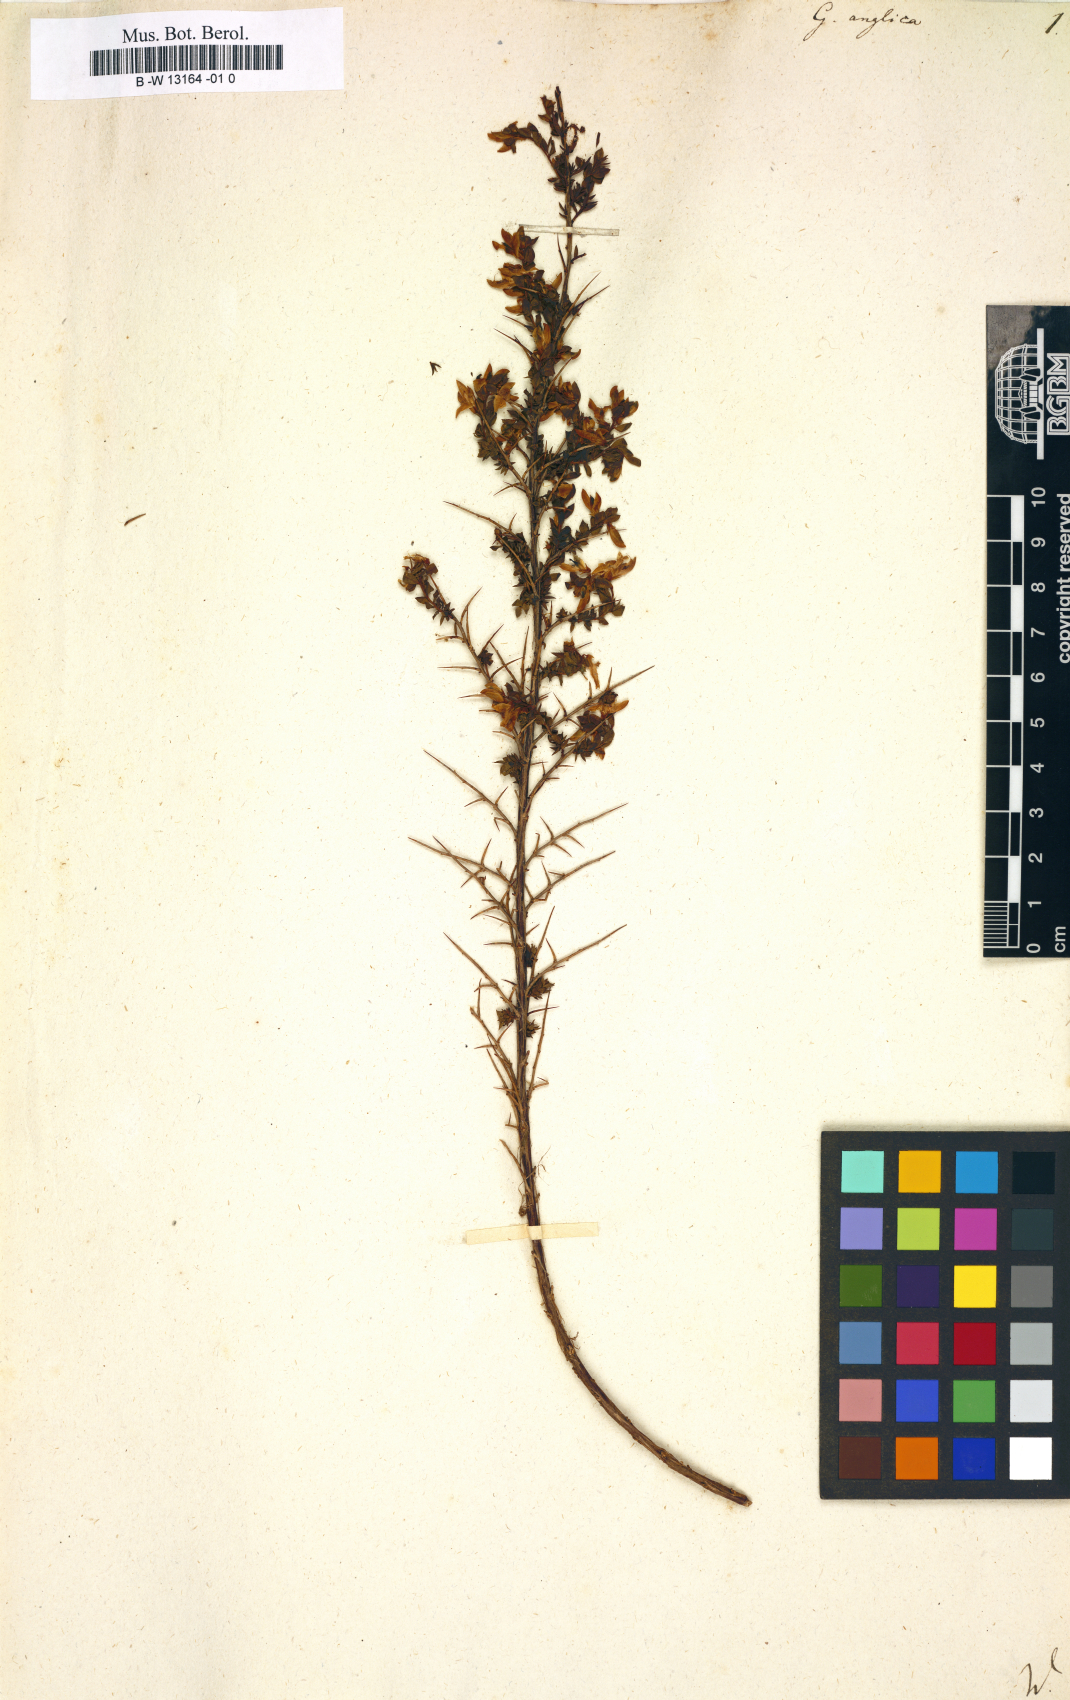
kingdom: Plantae
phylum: Tracheophyta
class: Magnoliopsida
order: Fabales
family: Fabaceae
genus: Genista
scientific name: Genista anglica
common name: Petty whin
